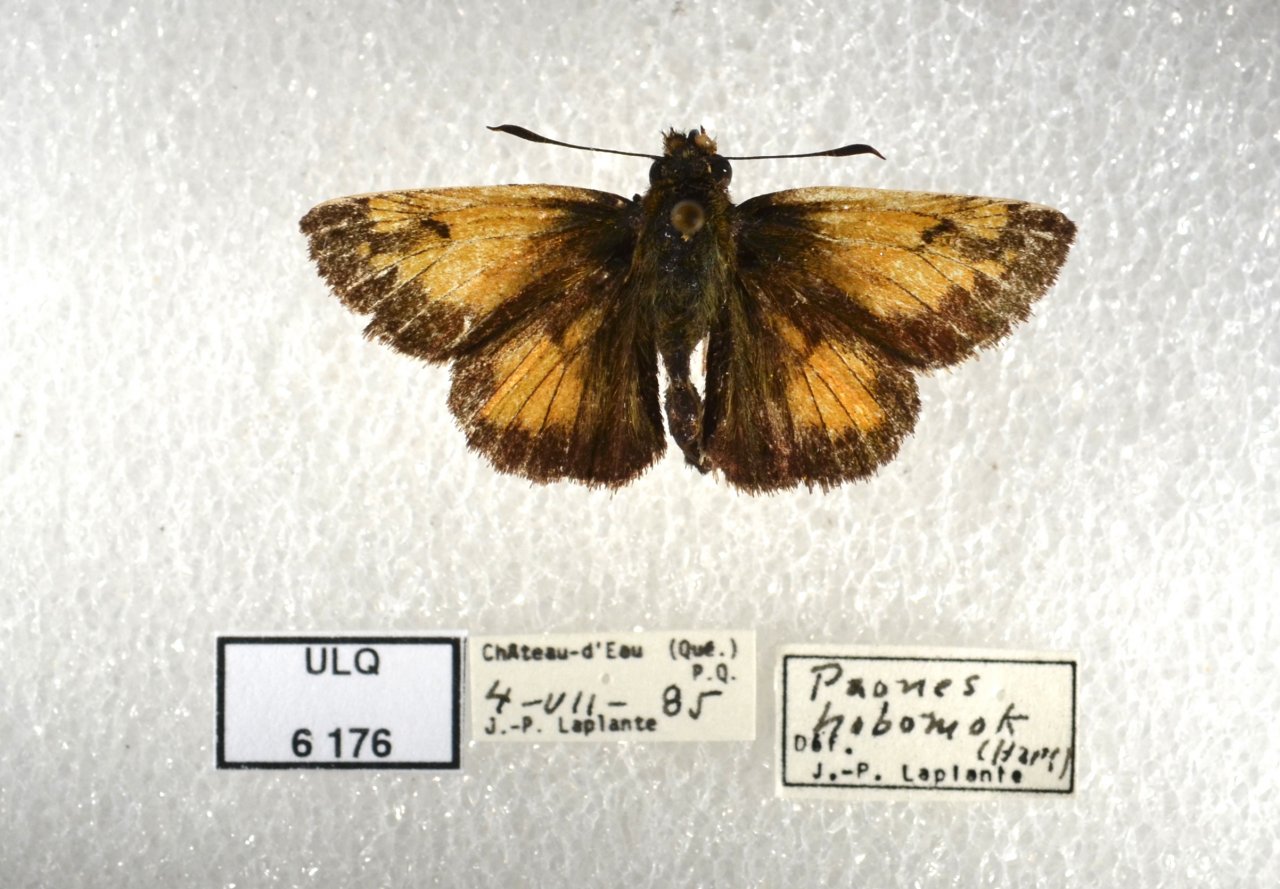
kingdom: Animalia
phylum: Arthropoda
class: Insecta
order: Lepidoptera
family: Hesperiidae
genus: Lon
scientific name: Lon hobomok
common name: Hobomok Skipper
